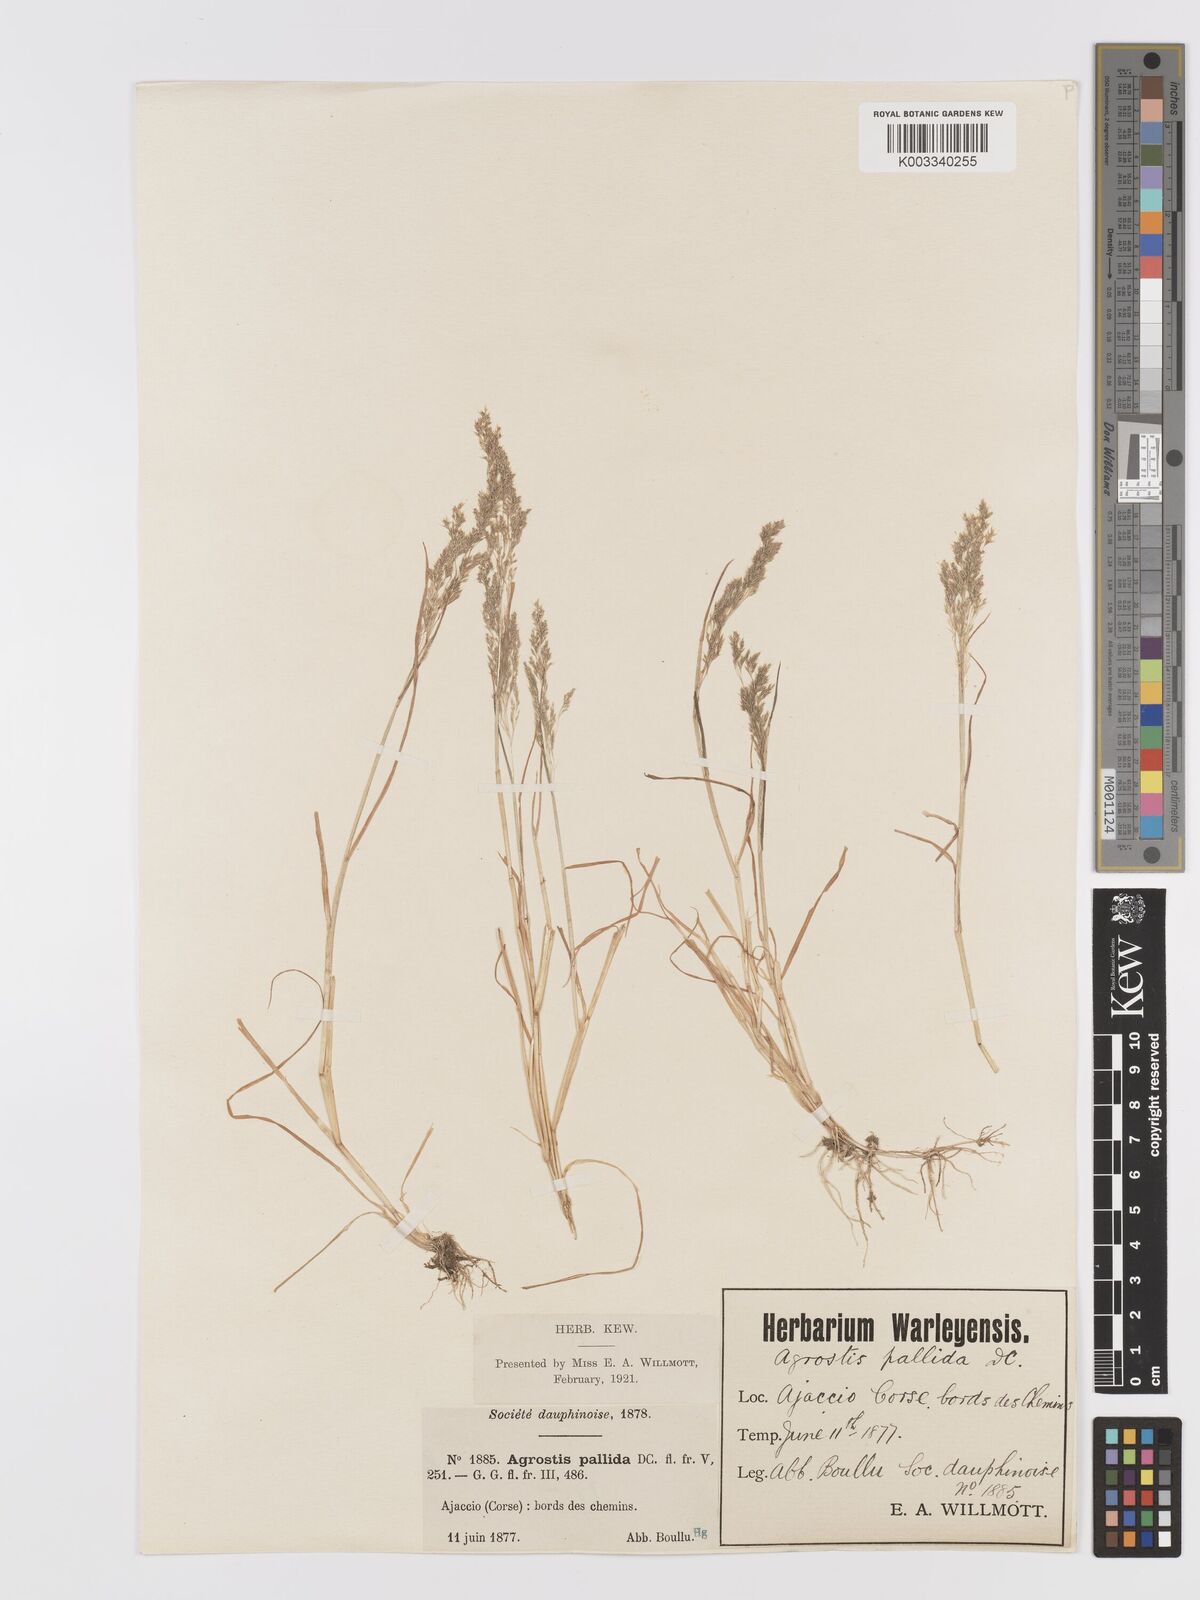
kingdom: Plantae
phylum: Tracheophyta
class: Liliopsida
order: Poales
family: Poaceae
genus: Agrostis
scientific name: Agrostis pourretii
